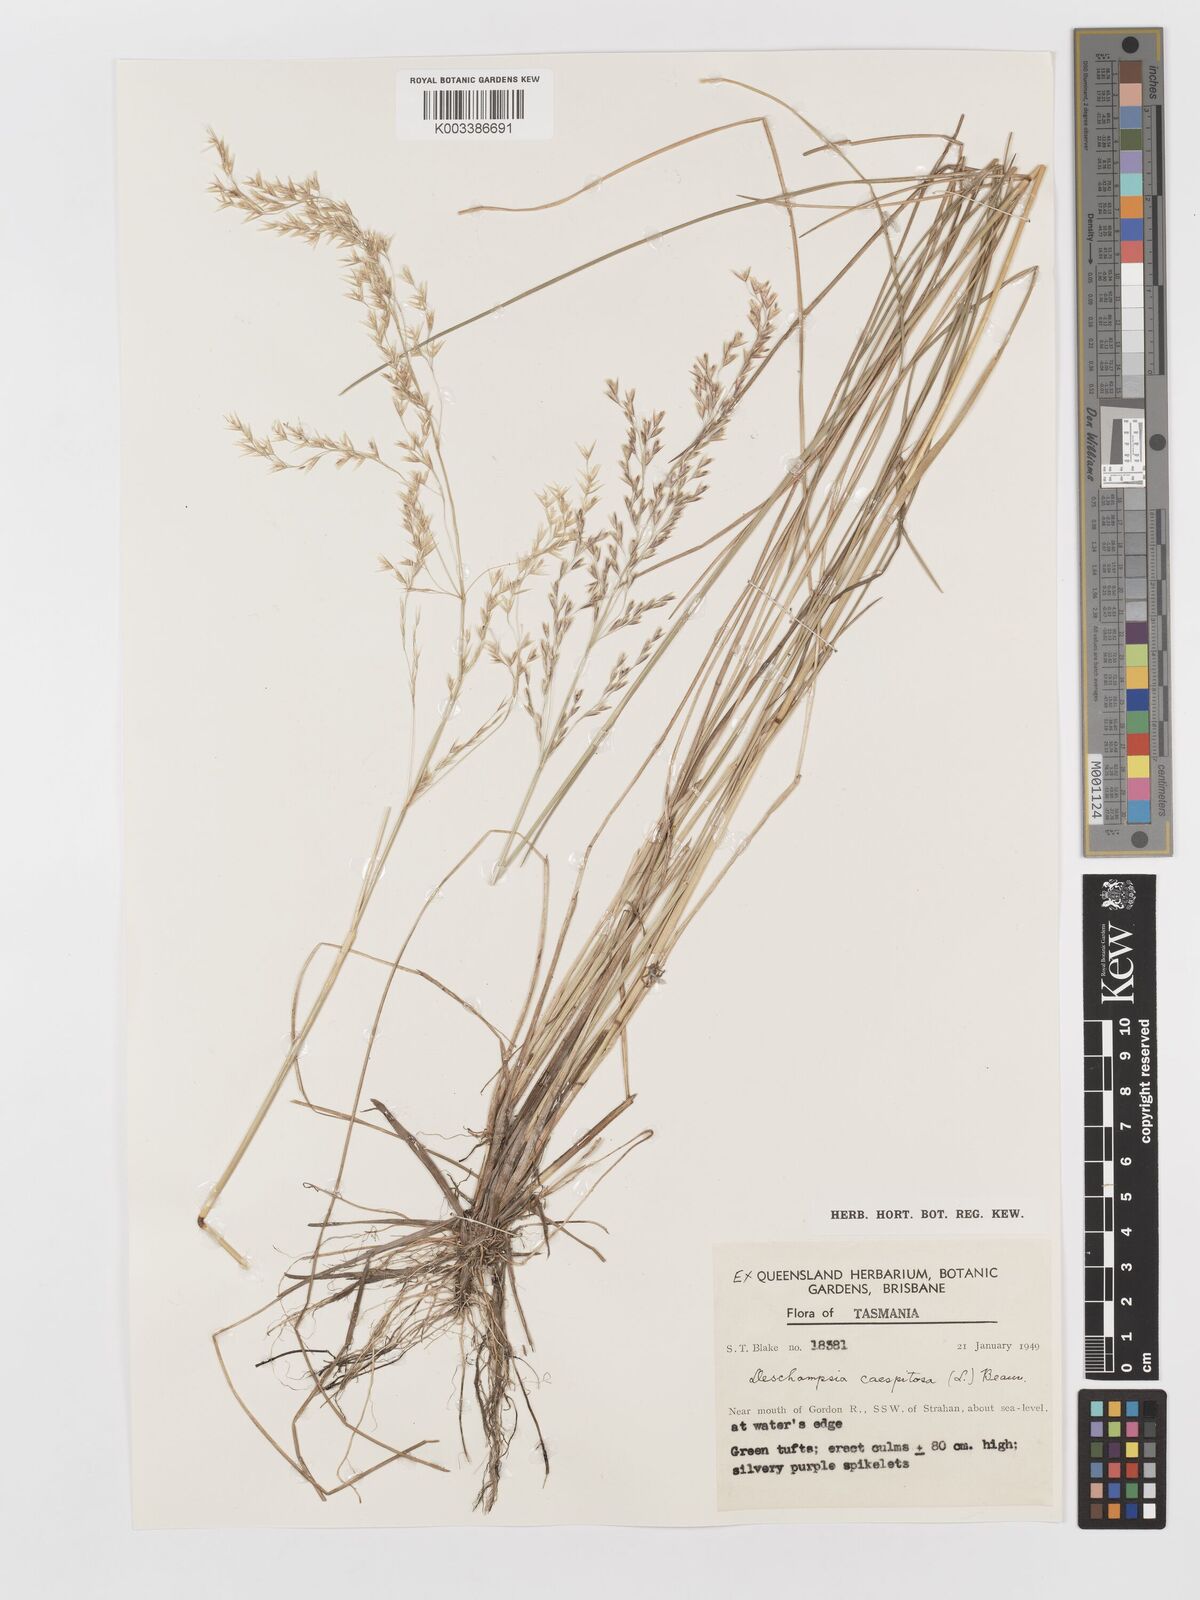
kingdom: Plantae
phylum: Tracheophyta
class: Liliopsida
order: Poales
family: Poaceae
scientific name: Poaceae
